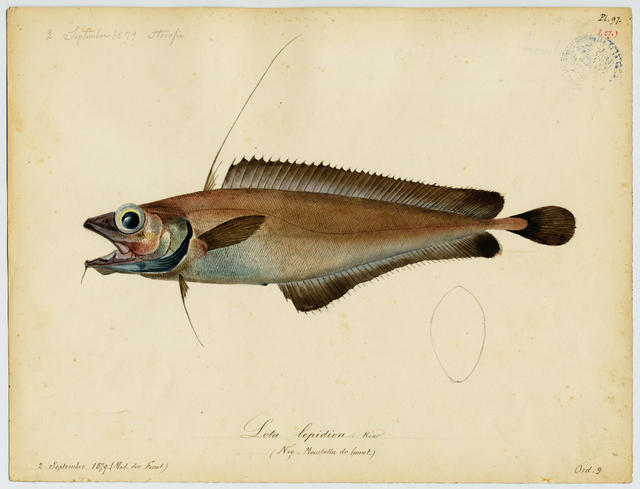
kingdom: Animalia
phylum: Chordata
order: Gadiformes
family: Moridae
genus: Lepidion
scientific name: Lepidion lepidion
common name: Mediterranean codling
